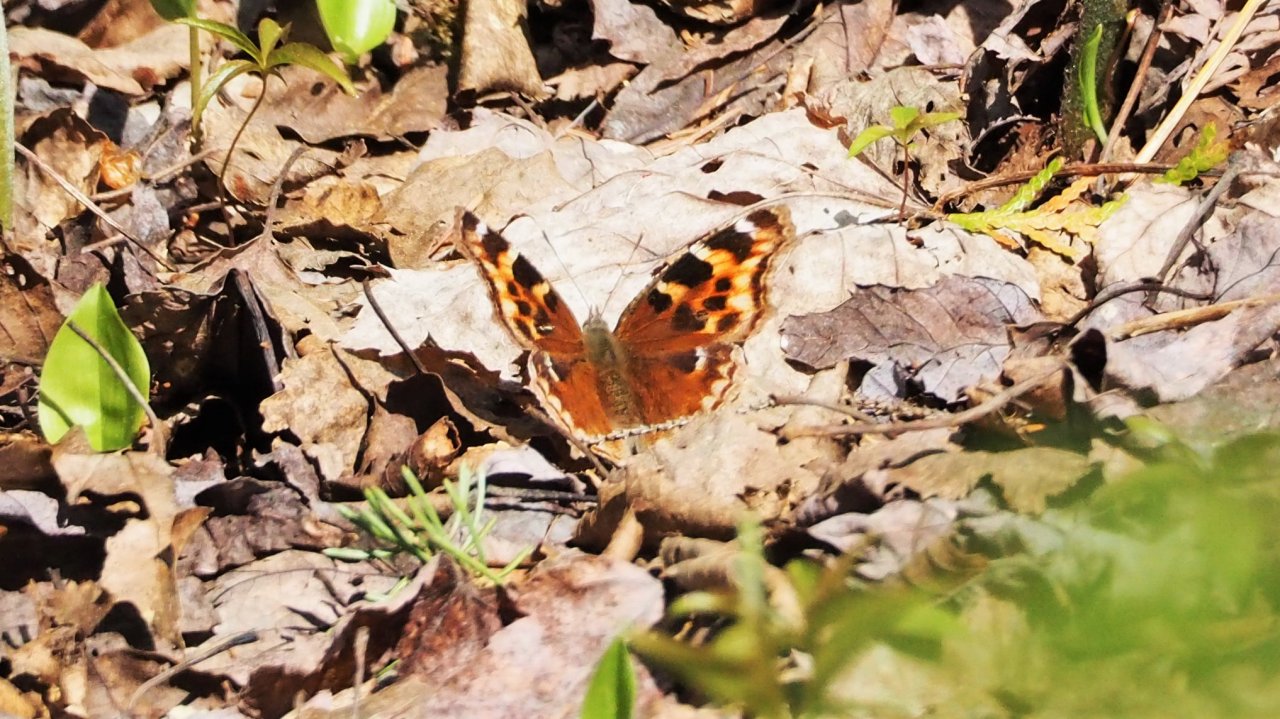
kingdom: Animalia
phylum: Arthropoda
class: Insecta
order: Lepidoptera
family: Nymphalidae
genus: Polygonia
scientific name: Polygonia vaualbum
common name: Compton Tortoiseshell
